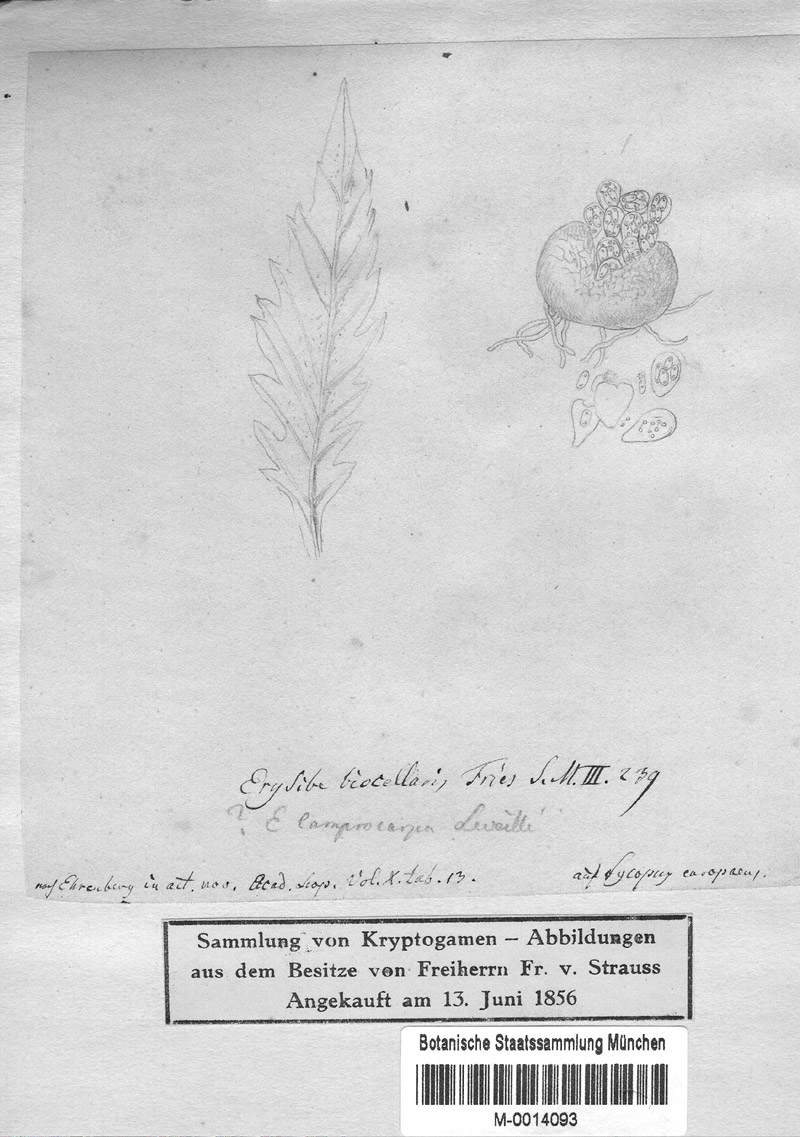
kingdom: Plantae
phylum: Tracheophyta
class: Magnoliopsida
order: Lamiales
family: Lamiaceae
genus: Lycopus
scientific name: Lycopus europaeus
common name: European bugleweed
